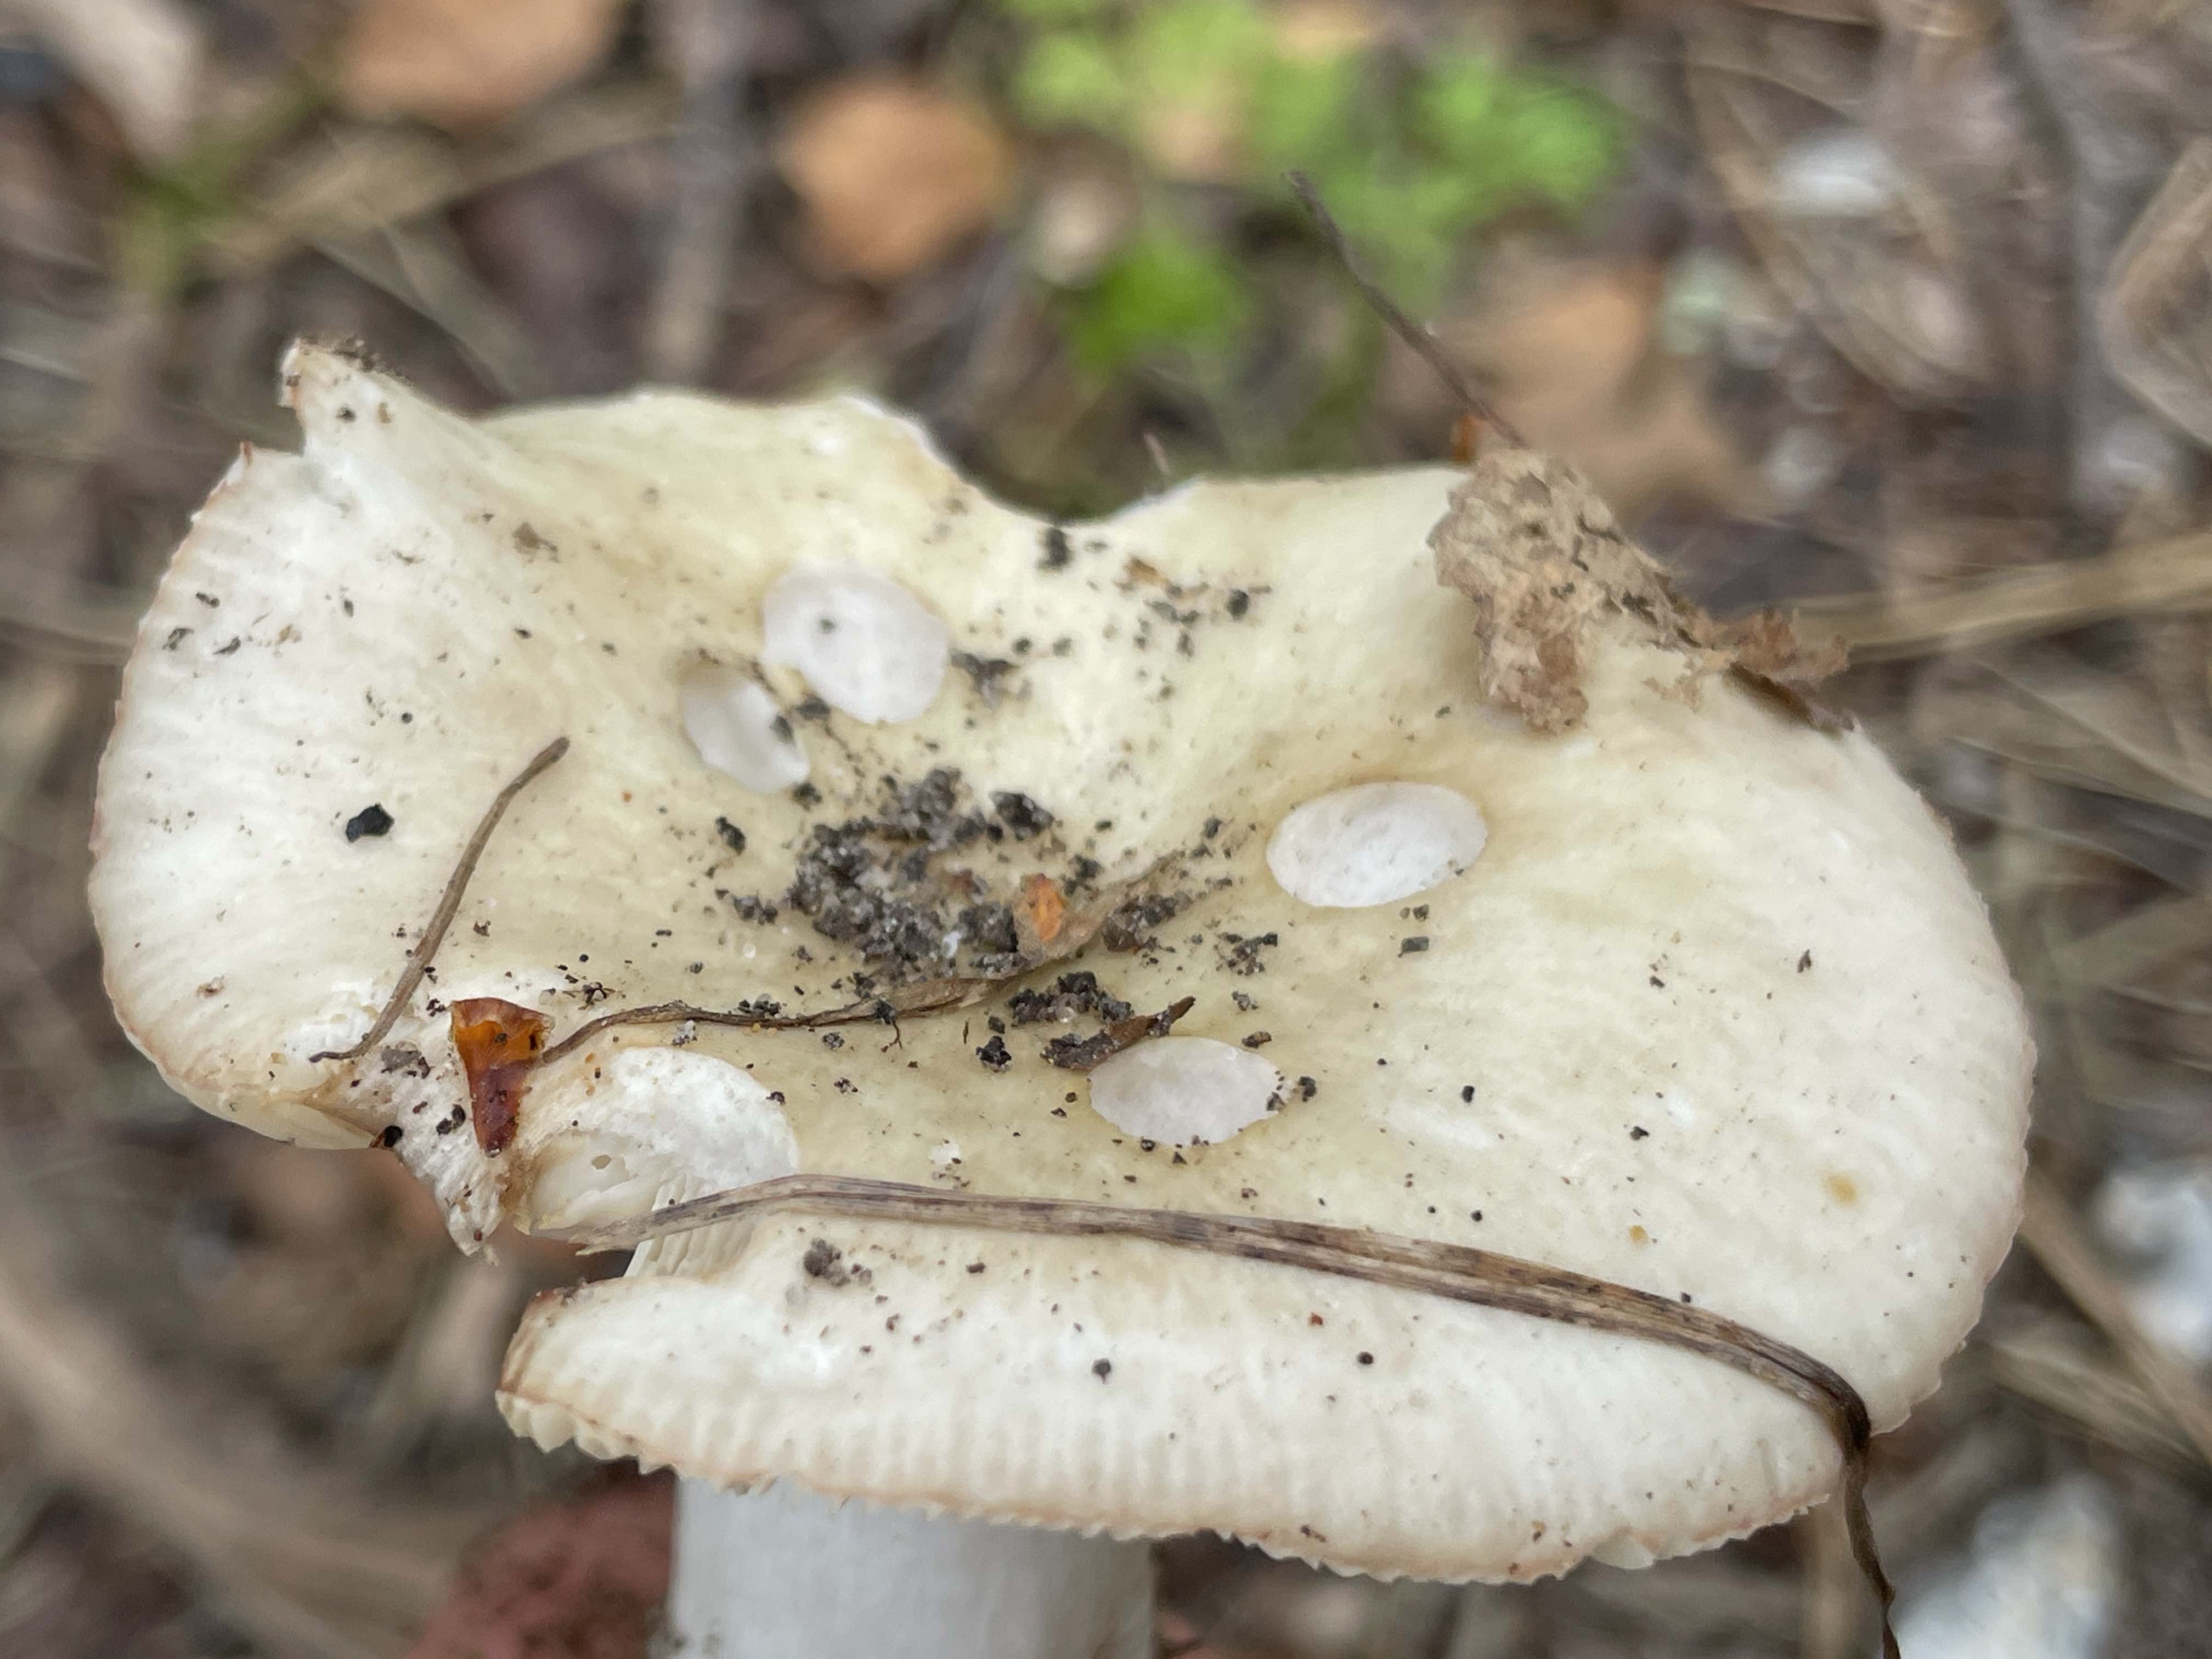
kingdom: Fungi
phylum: Basidiomycota
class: Agaricomycetes
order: Russulales
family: Russulaceae
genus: Russula
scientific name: Russula aeruginea
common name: græsgrøn skørhat
